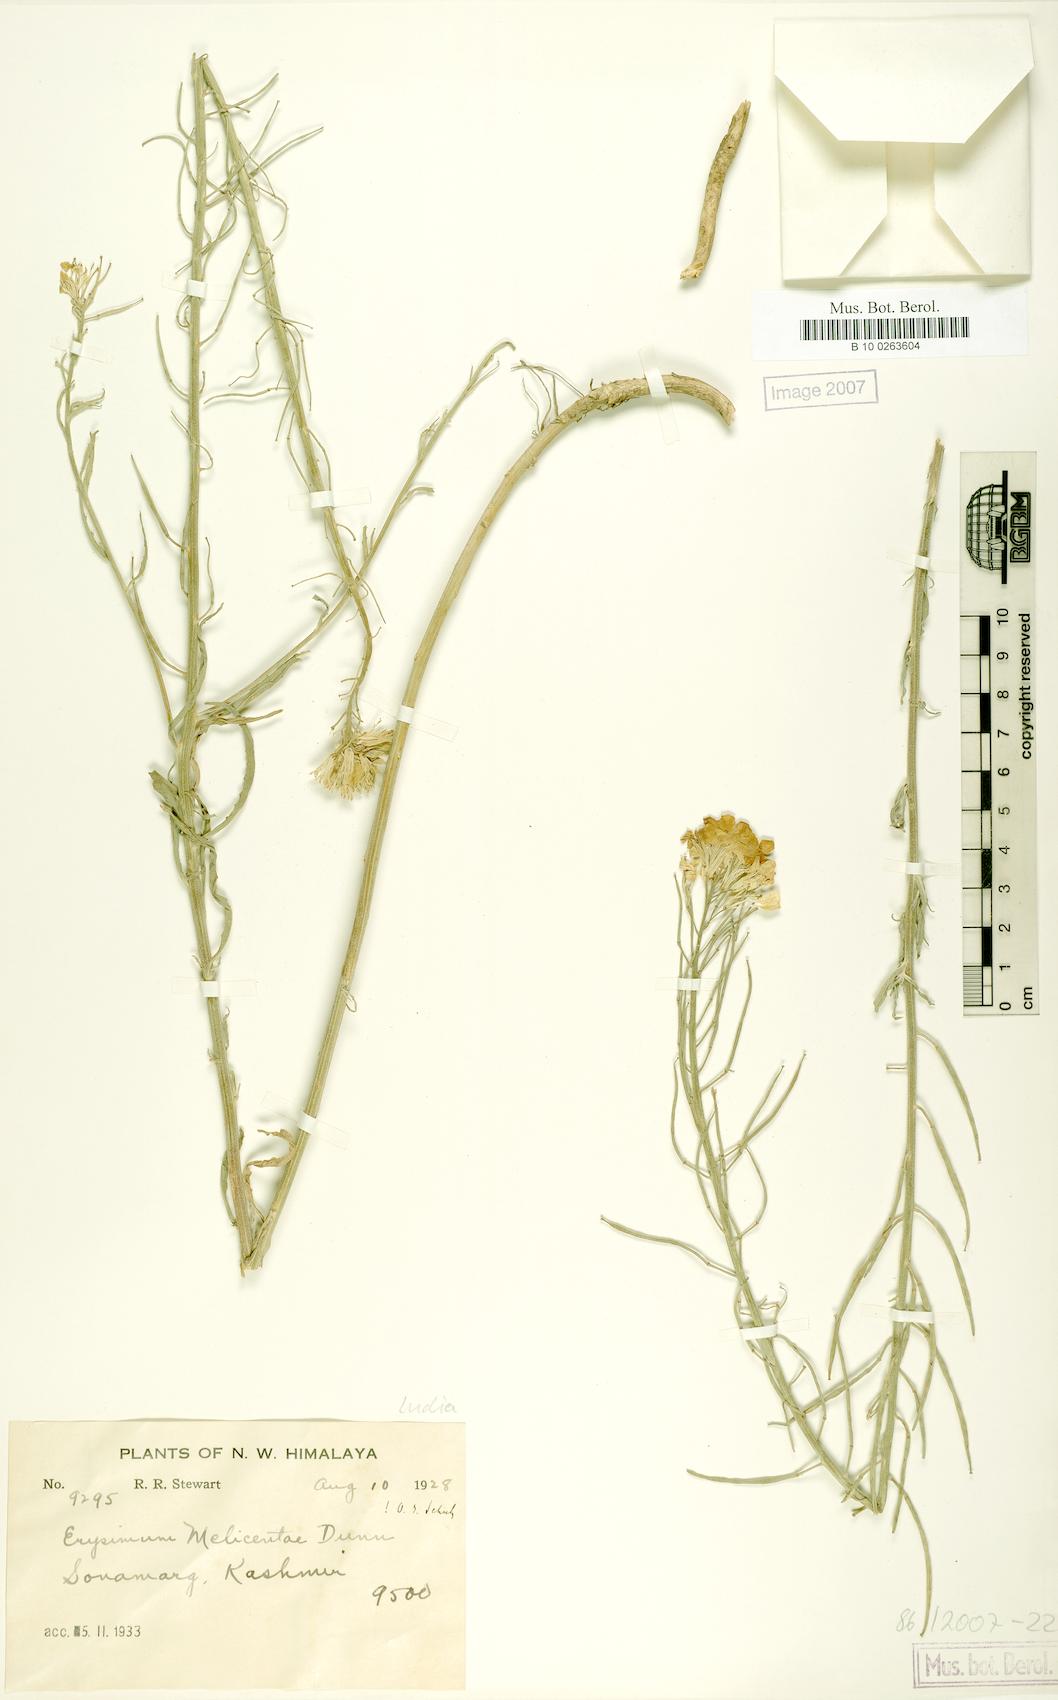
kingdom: Plantae
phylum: Tracheophyta
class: Magnoliopsida
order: Brassicales
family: Brassicaceae
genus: Erysimum
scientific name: Erysimum melicentae
